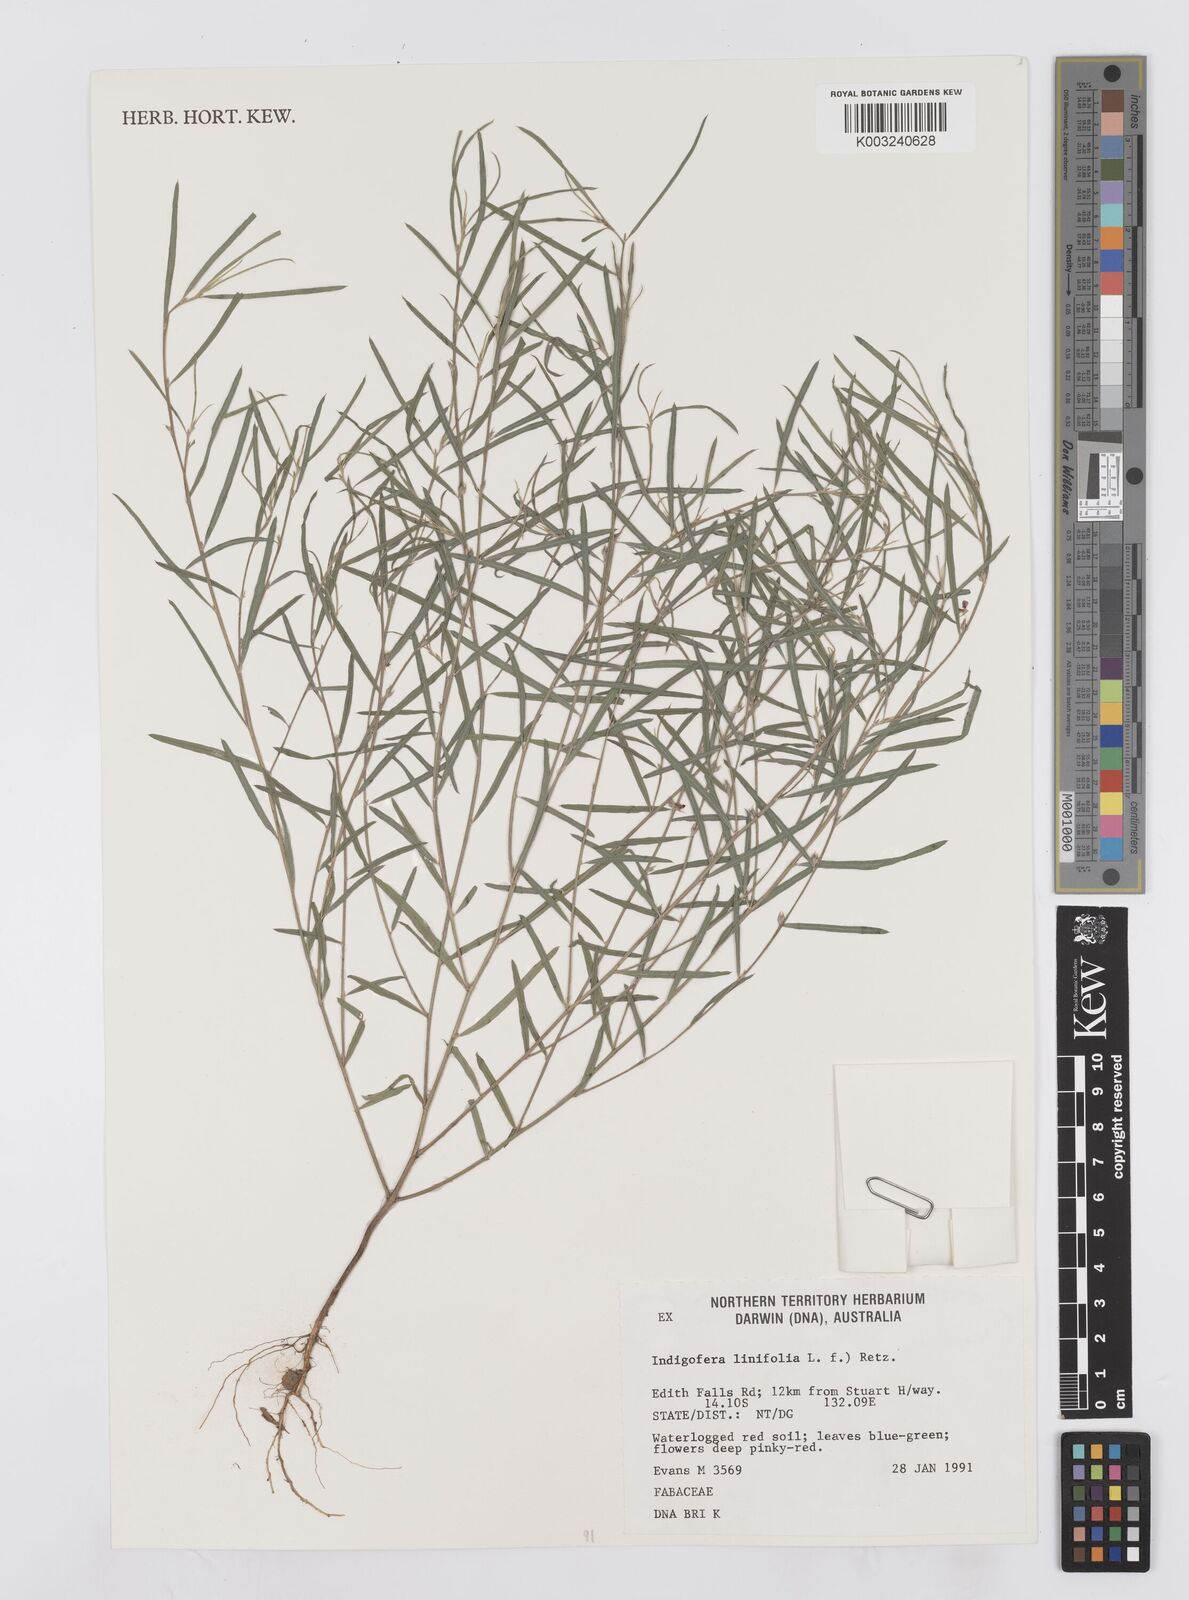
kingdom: Plantae
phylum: Tracheophyta
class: Magnoliopsida
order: Fabales
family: Fabaceae
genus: Indigofera
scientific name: Indigofera linifolia
